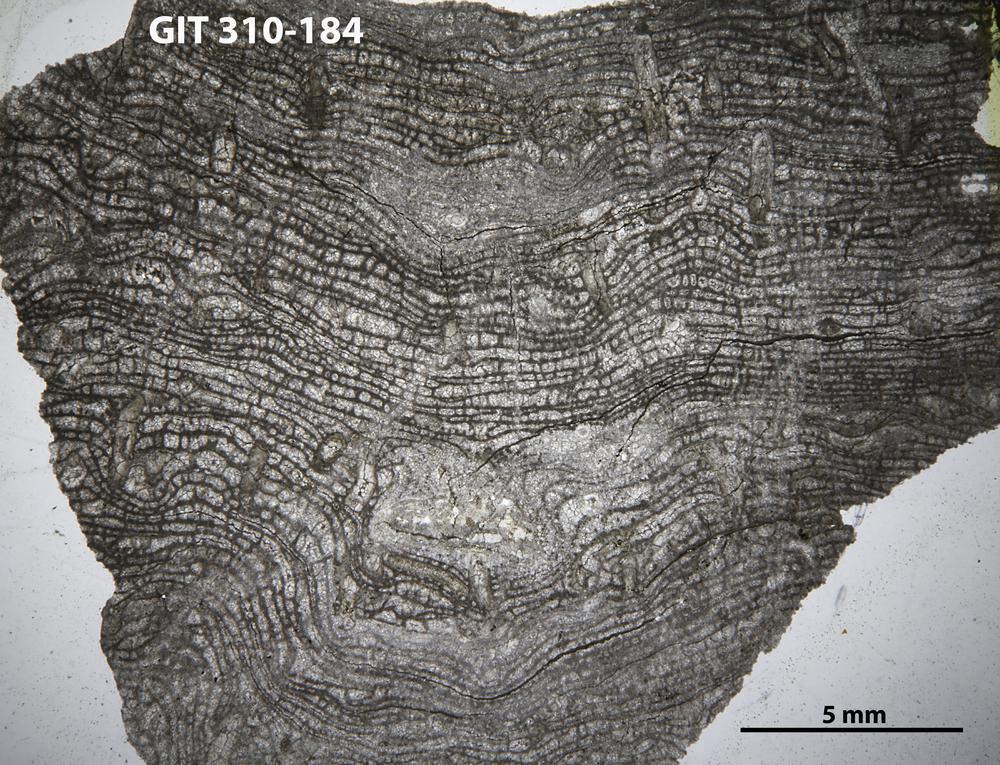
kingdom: Animalia
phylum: Porifera
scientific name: Porifera
